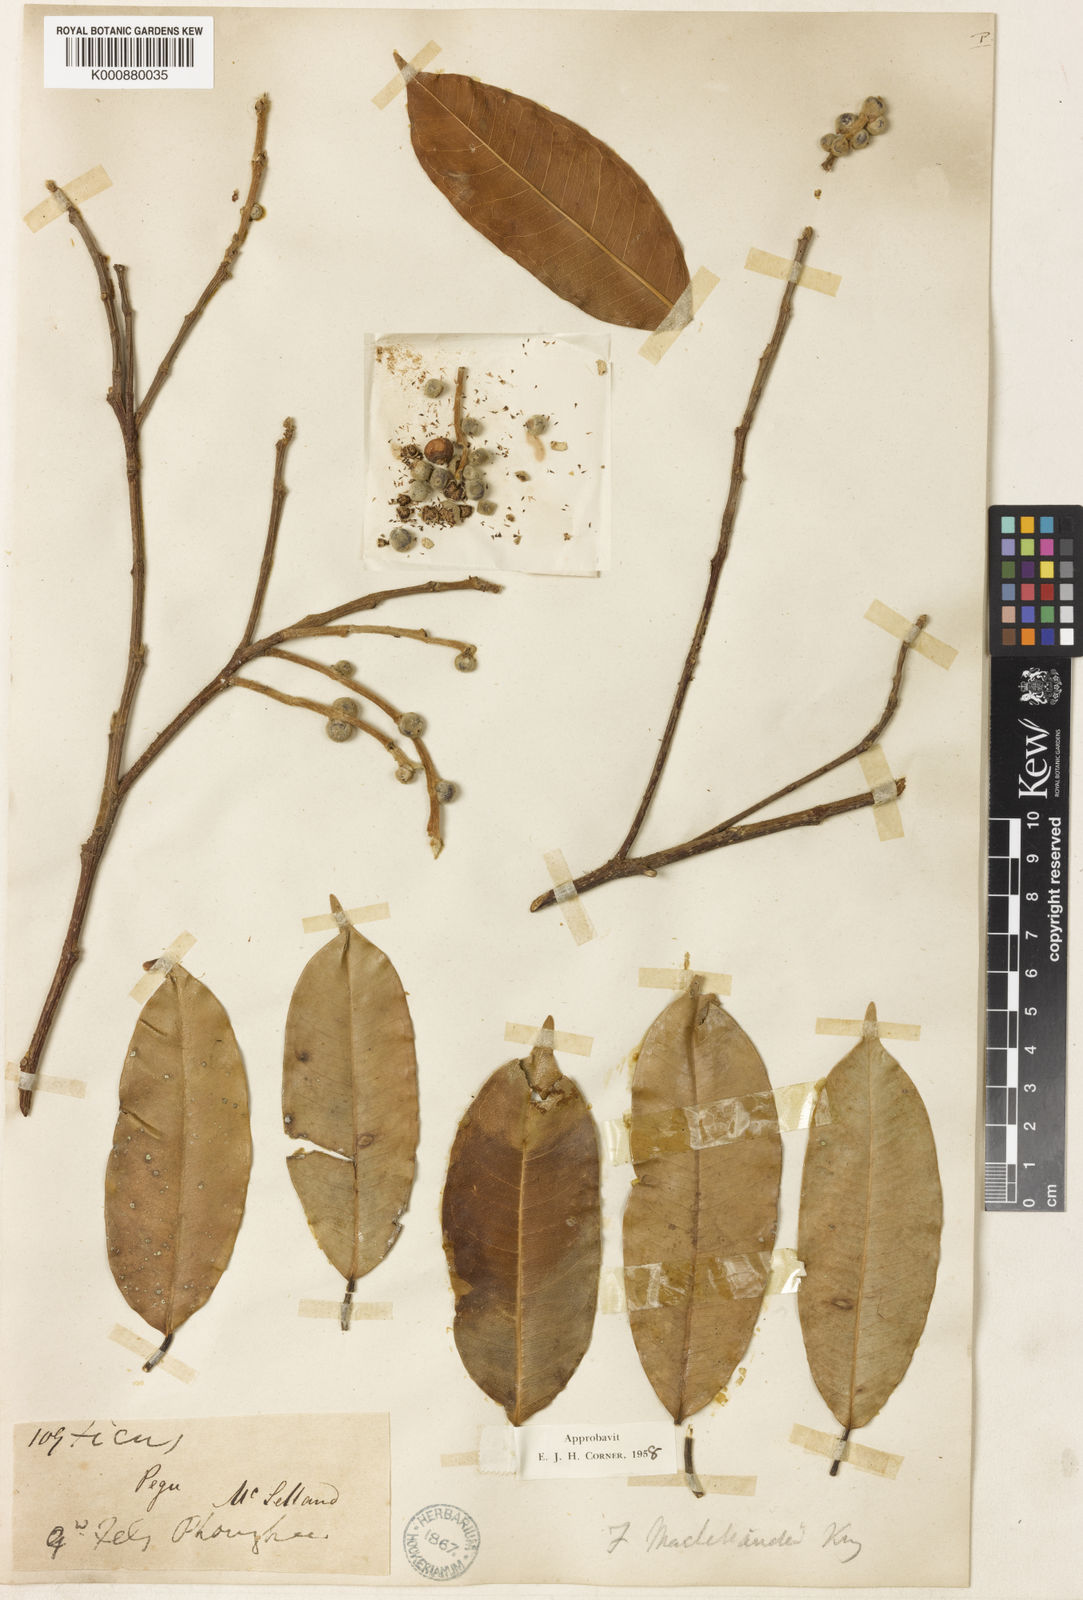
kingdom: Plantae
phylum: Tracheophyta
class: Magnoliopsida
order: Rosales
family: Moraceae
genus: Ficus
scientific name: Ficus maclellandii
